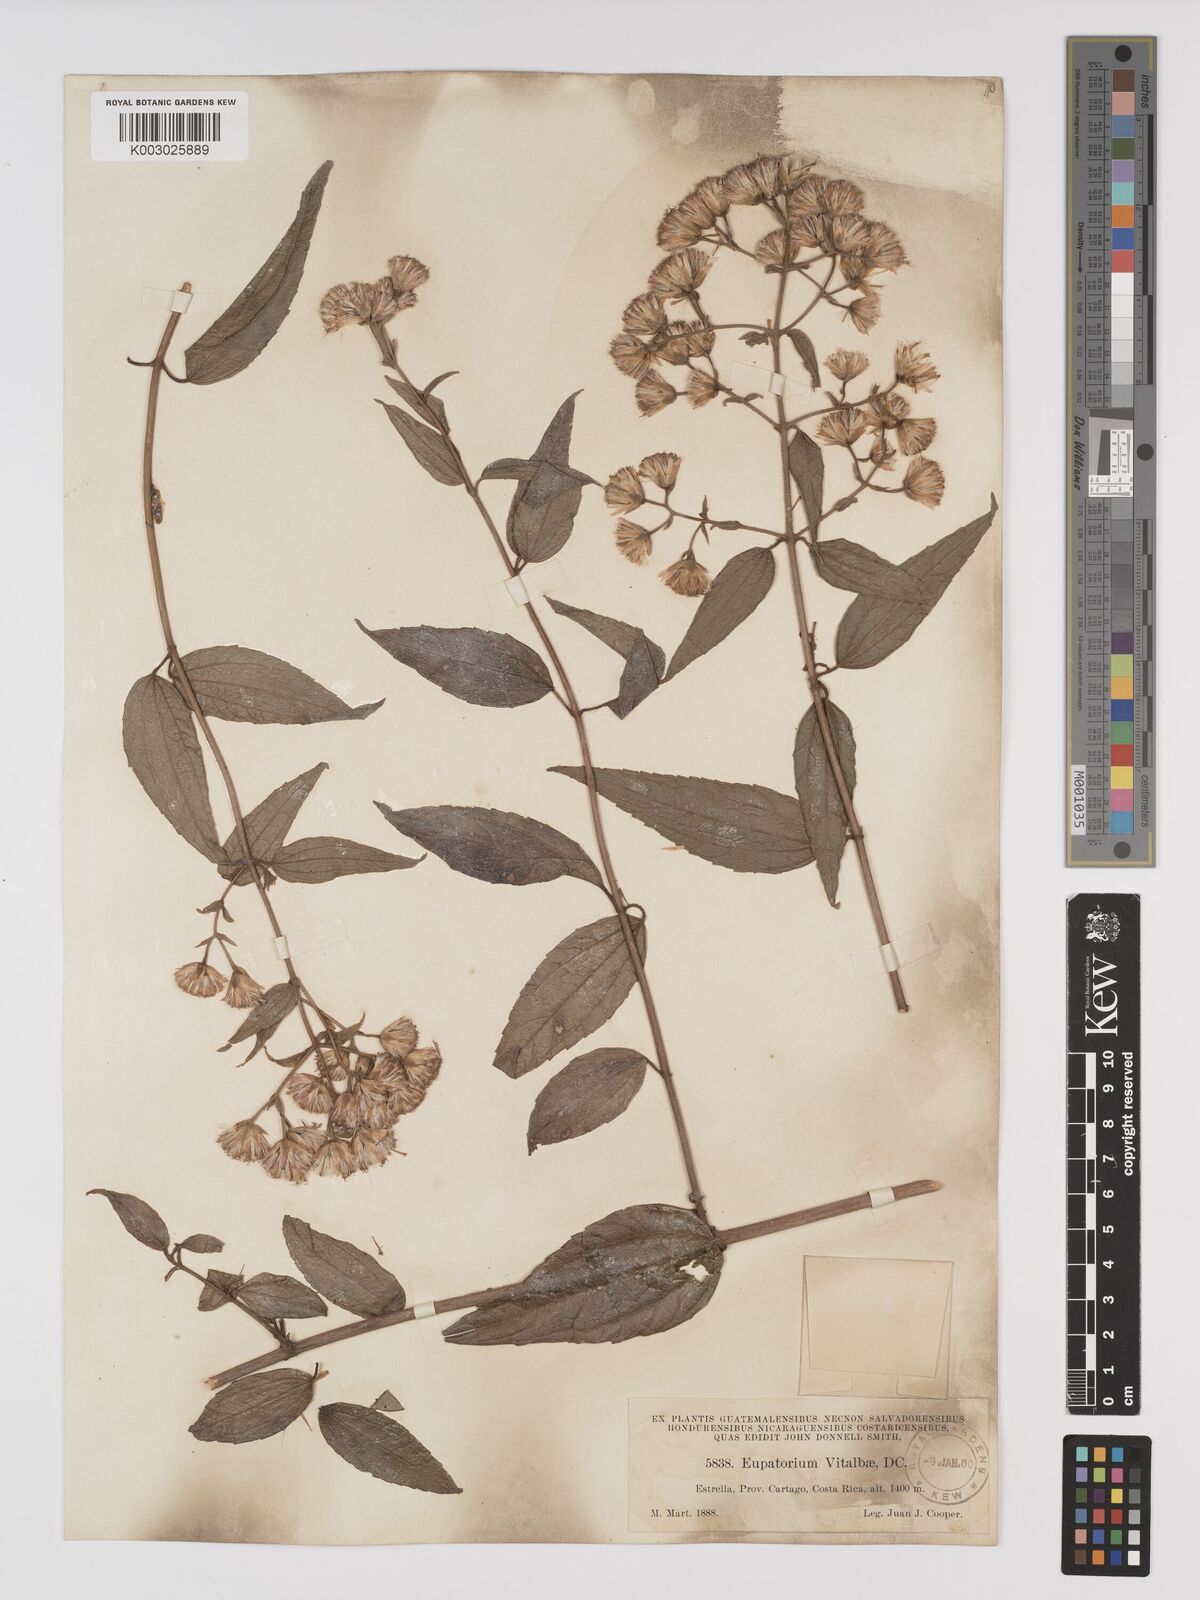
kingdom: Plantae
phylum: Tracheophyta
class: Magnoliopsida
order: Asterales
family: Asteraceae
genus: Heterocondylus
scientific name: Heterocondylus vitalbae
